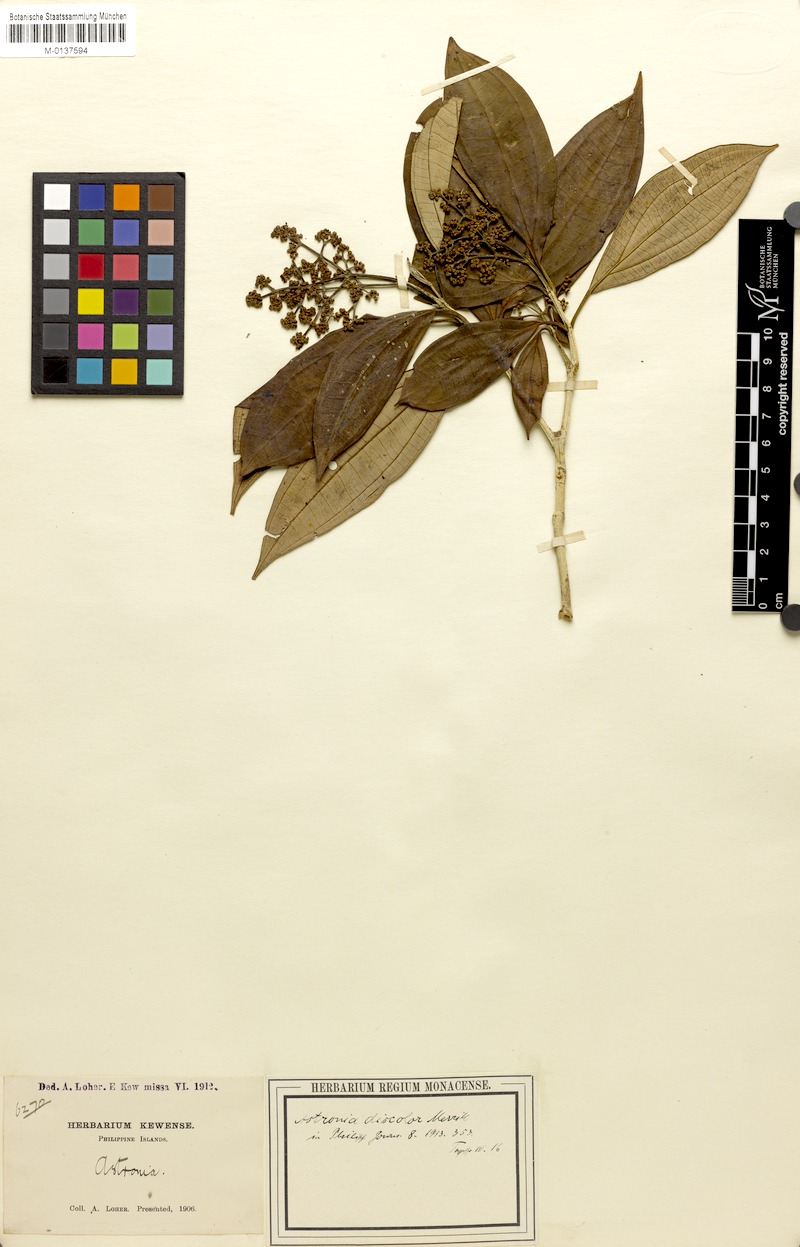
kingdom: Plantae
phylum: Tracheophyta
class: Magnoliopsida
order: Myrtales
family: Melastomataceae
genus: Astronia
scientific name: Astronia cumingiana
